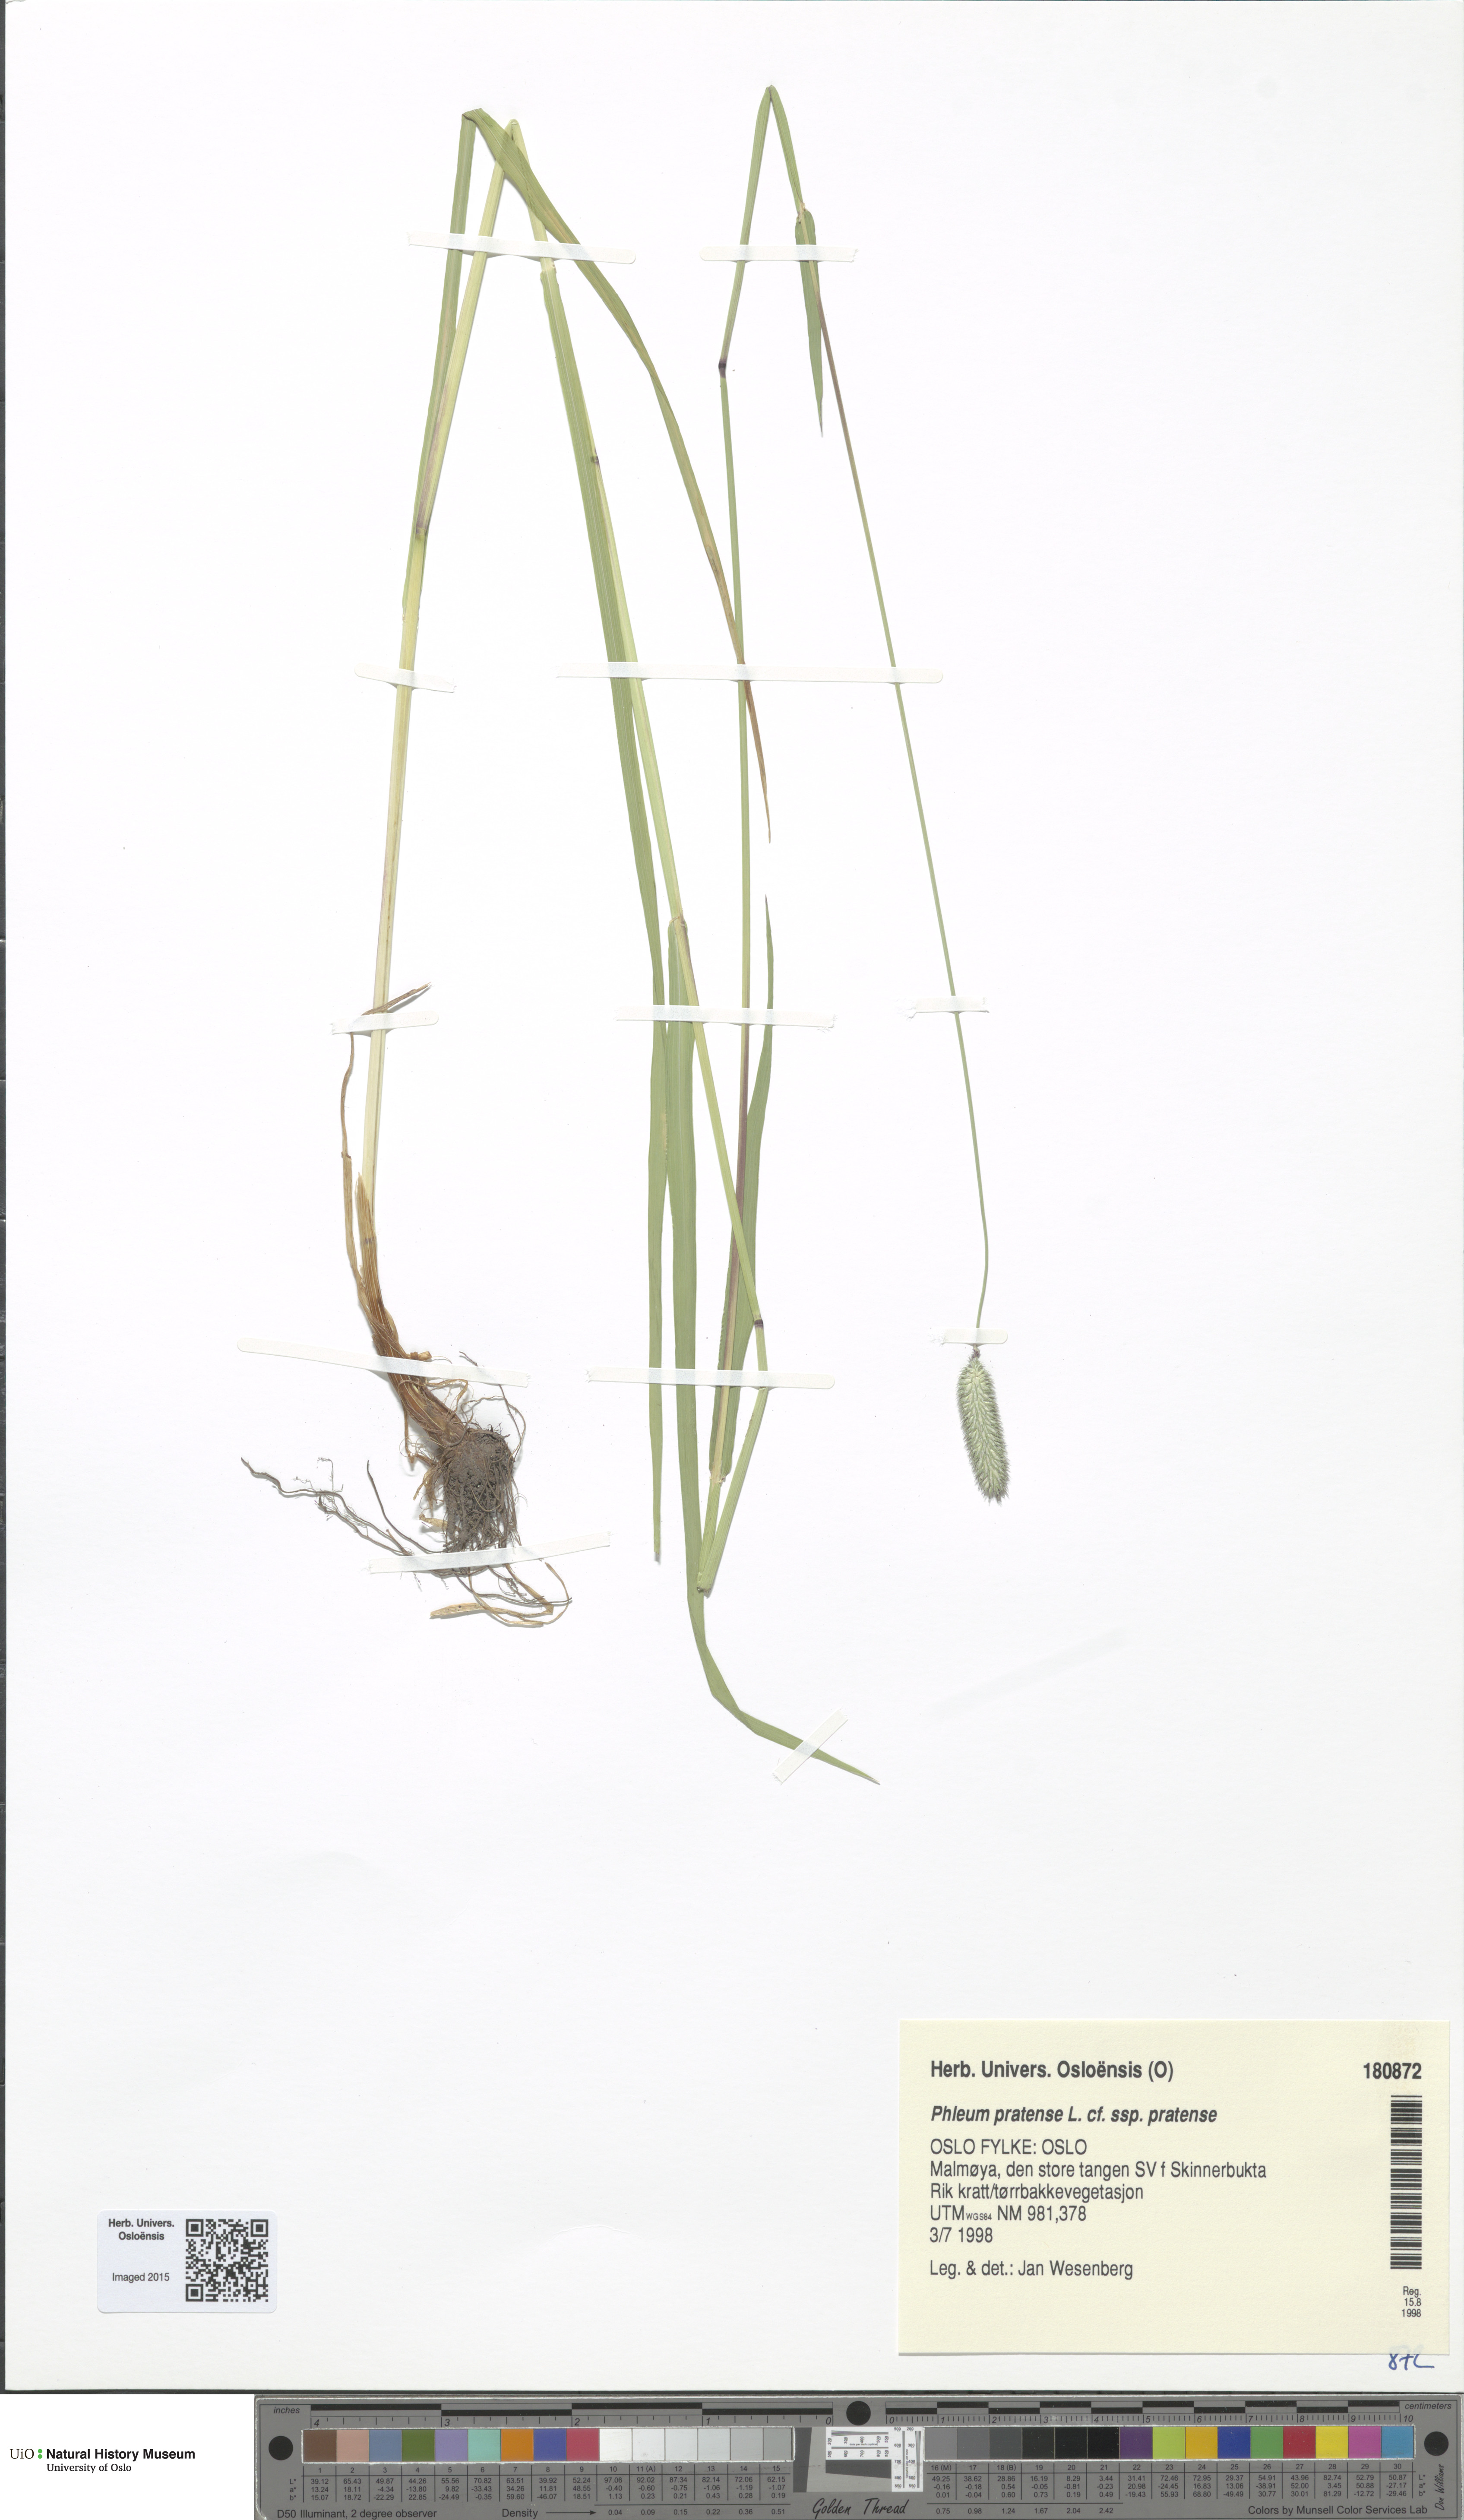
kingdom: Plantae
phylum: Tracheophyta
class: Liliopsida
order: Poales
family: Poaceae
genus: Phleum
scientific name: Phleum pratense
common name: Timothy grass
